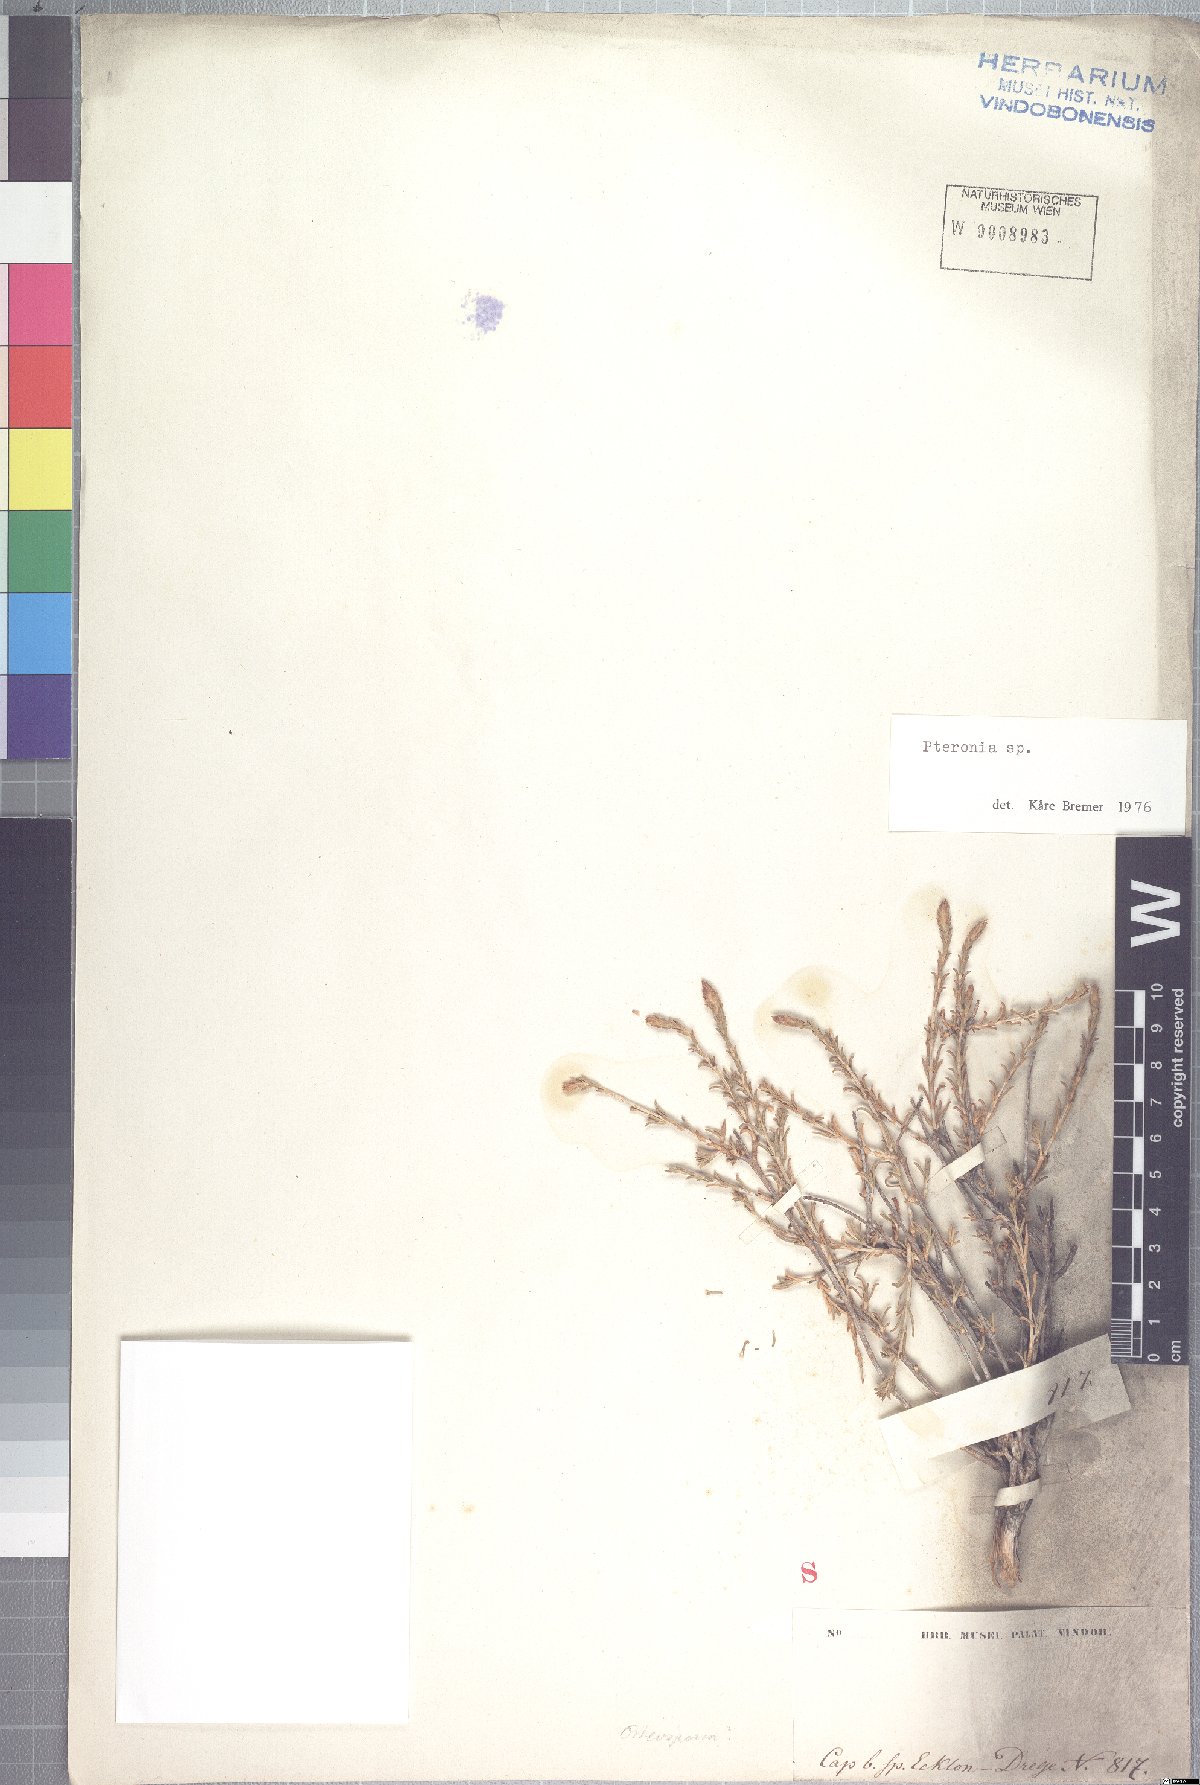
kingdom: Plantae
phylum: Tracheophyta
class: Magnoliopsida
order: Asterales
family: Asteraceae
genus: Pteronia
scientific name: Pteronia mucronata
